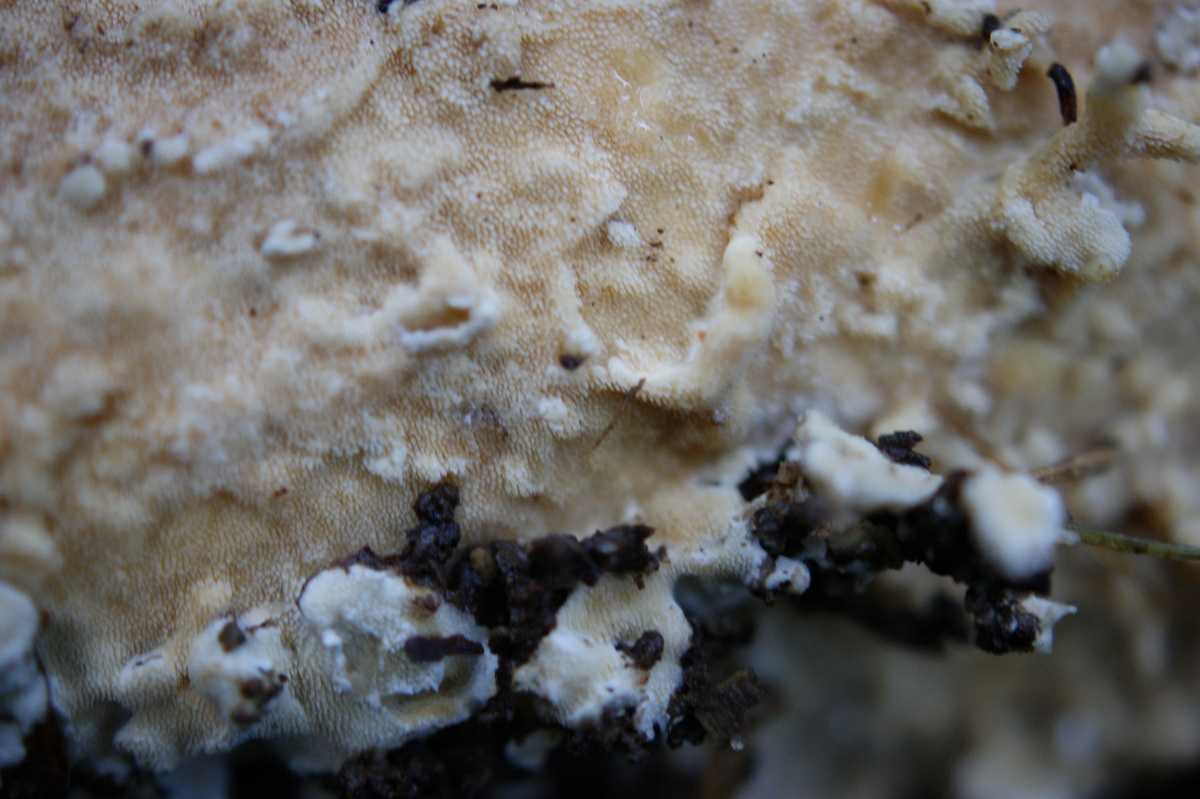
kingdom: Fungi
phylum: Basidiomycota
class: Agaricomycetes
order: Polyporales
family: Steccherinaceae
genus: Steccherinum
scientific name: Steccherinum ochraceum
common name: almindelig skønpig
